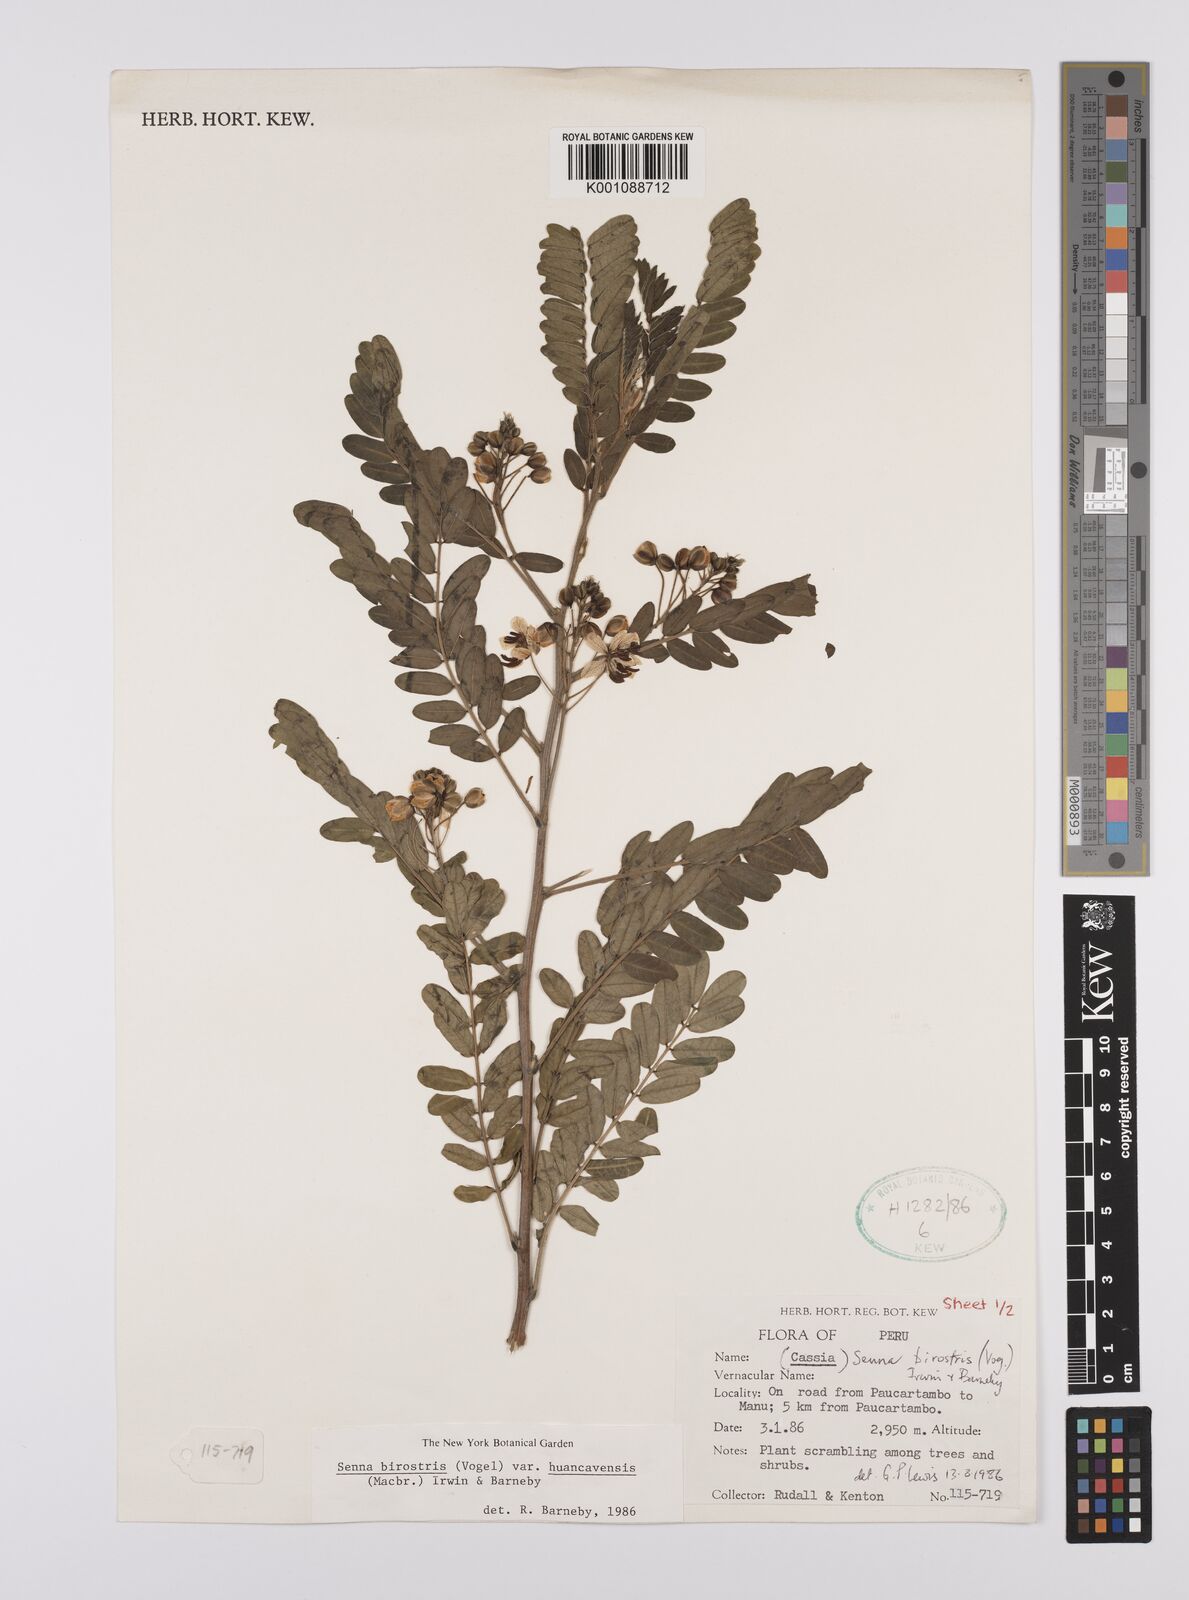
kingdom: Plantae
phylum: Tracheophyta
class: Magnoliopsida
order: Fabales
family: Fabaceae
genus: Senna
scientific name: Senna birostris
